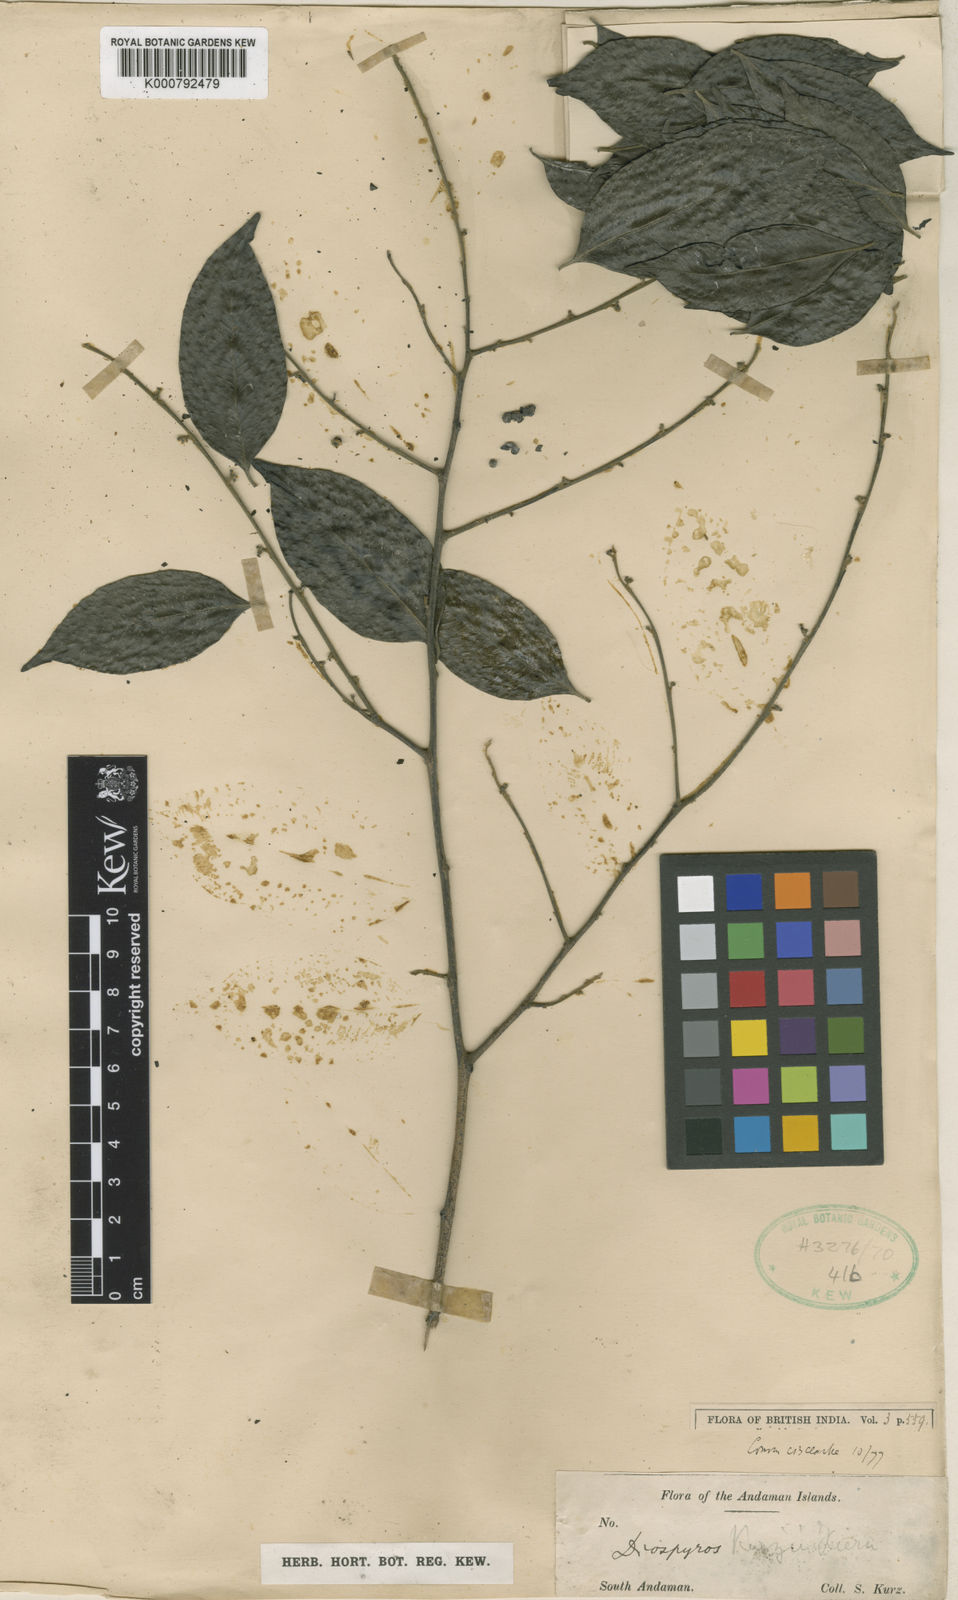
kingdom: Plantae
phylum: Tracheophyta
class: Magnoliopsida
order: Ericales
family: Ebenaceae
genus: Diospyros
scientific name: Diospyros kurzii
